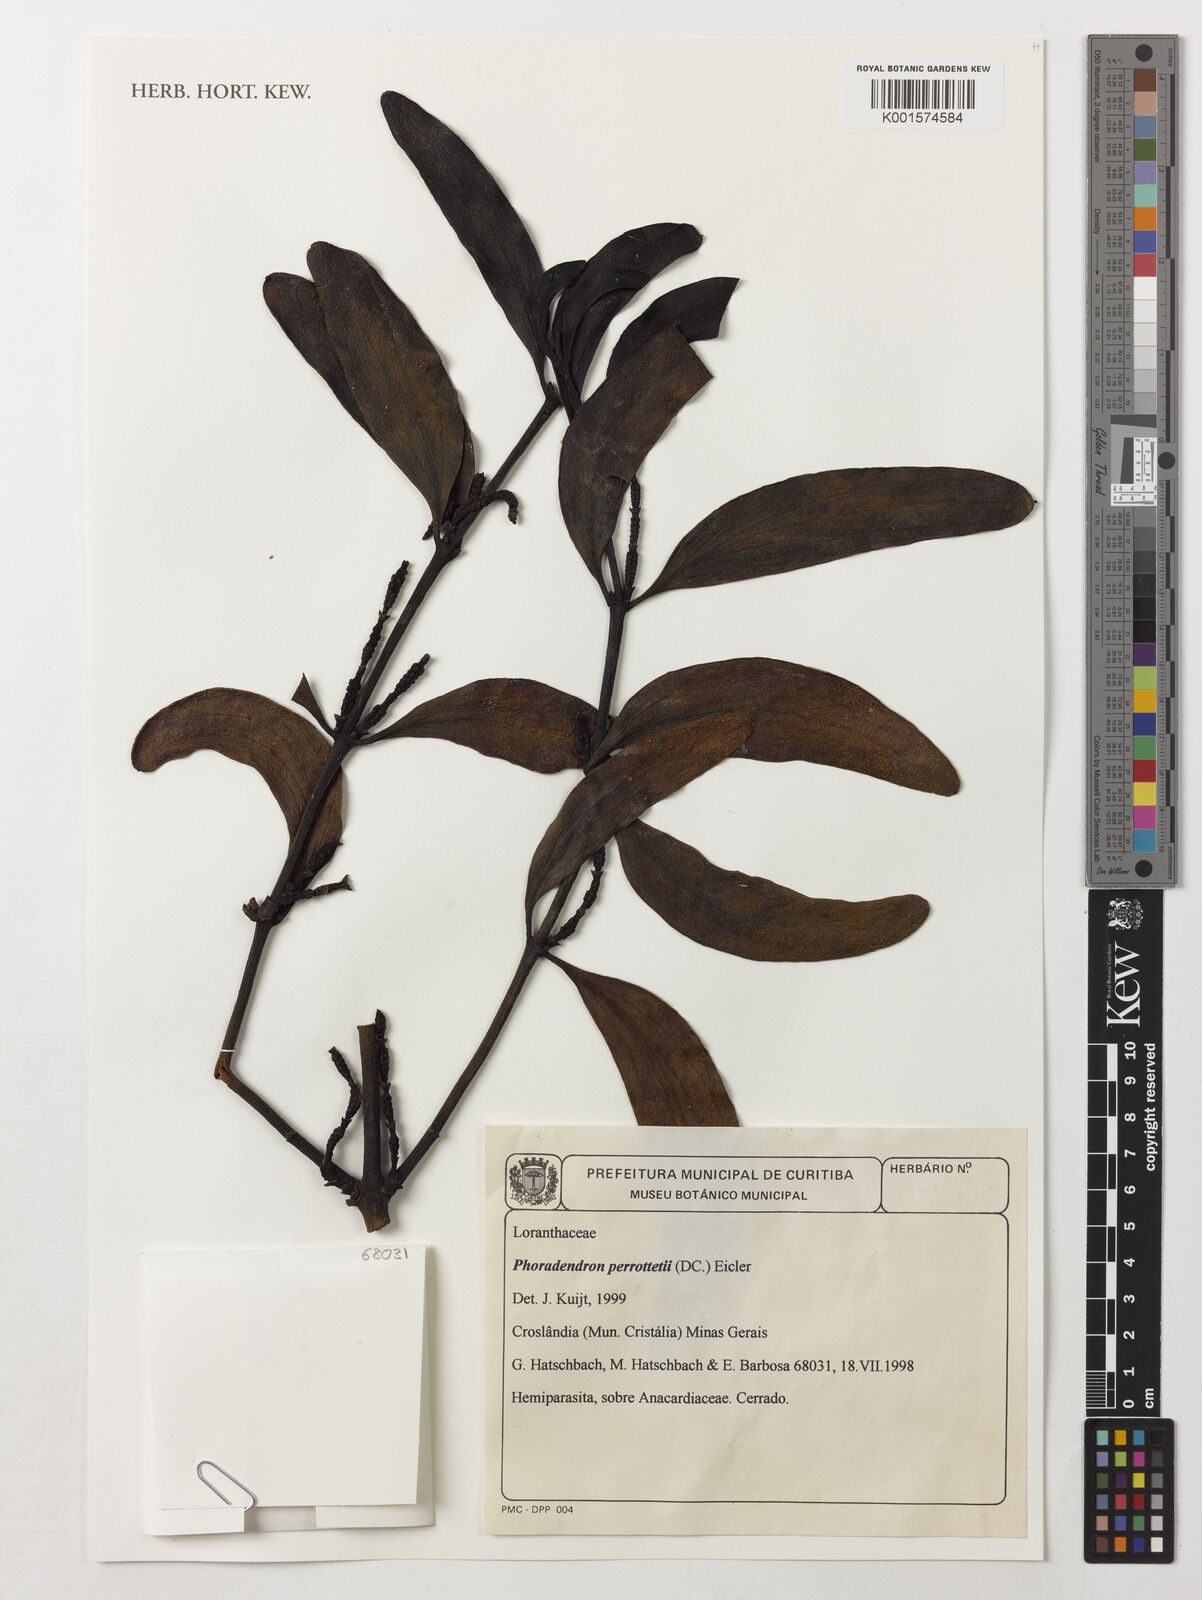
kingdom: Plantae
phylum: Tracheophyta
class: Magnoliopsida
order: Santalales
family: Viscaceae
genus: Phoradendron
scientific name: Phoradendron perrottetii
